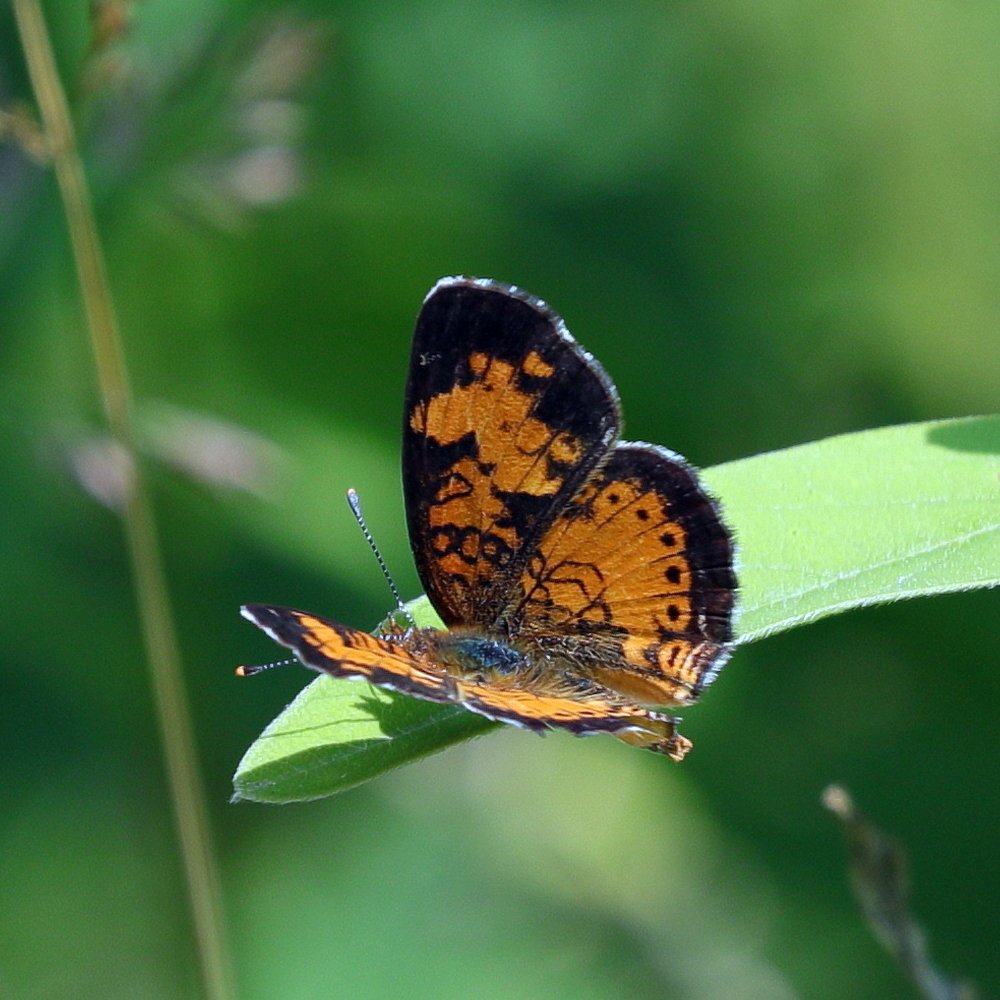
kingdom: Animalia
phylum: Arthropoda
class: Insecta
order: Lepidoptera
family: Nymphalidae
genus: Phyciodes
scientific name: Phyciodes tharos
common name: Northern Crescent
